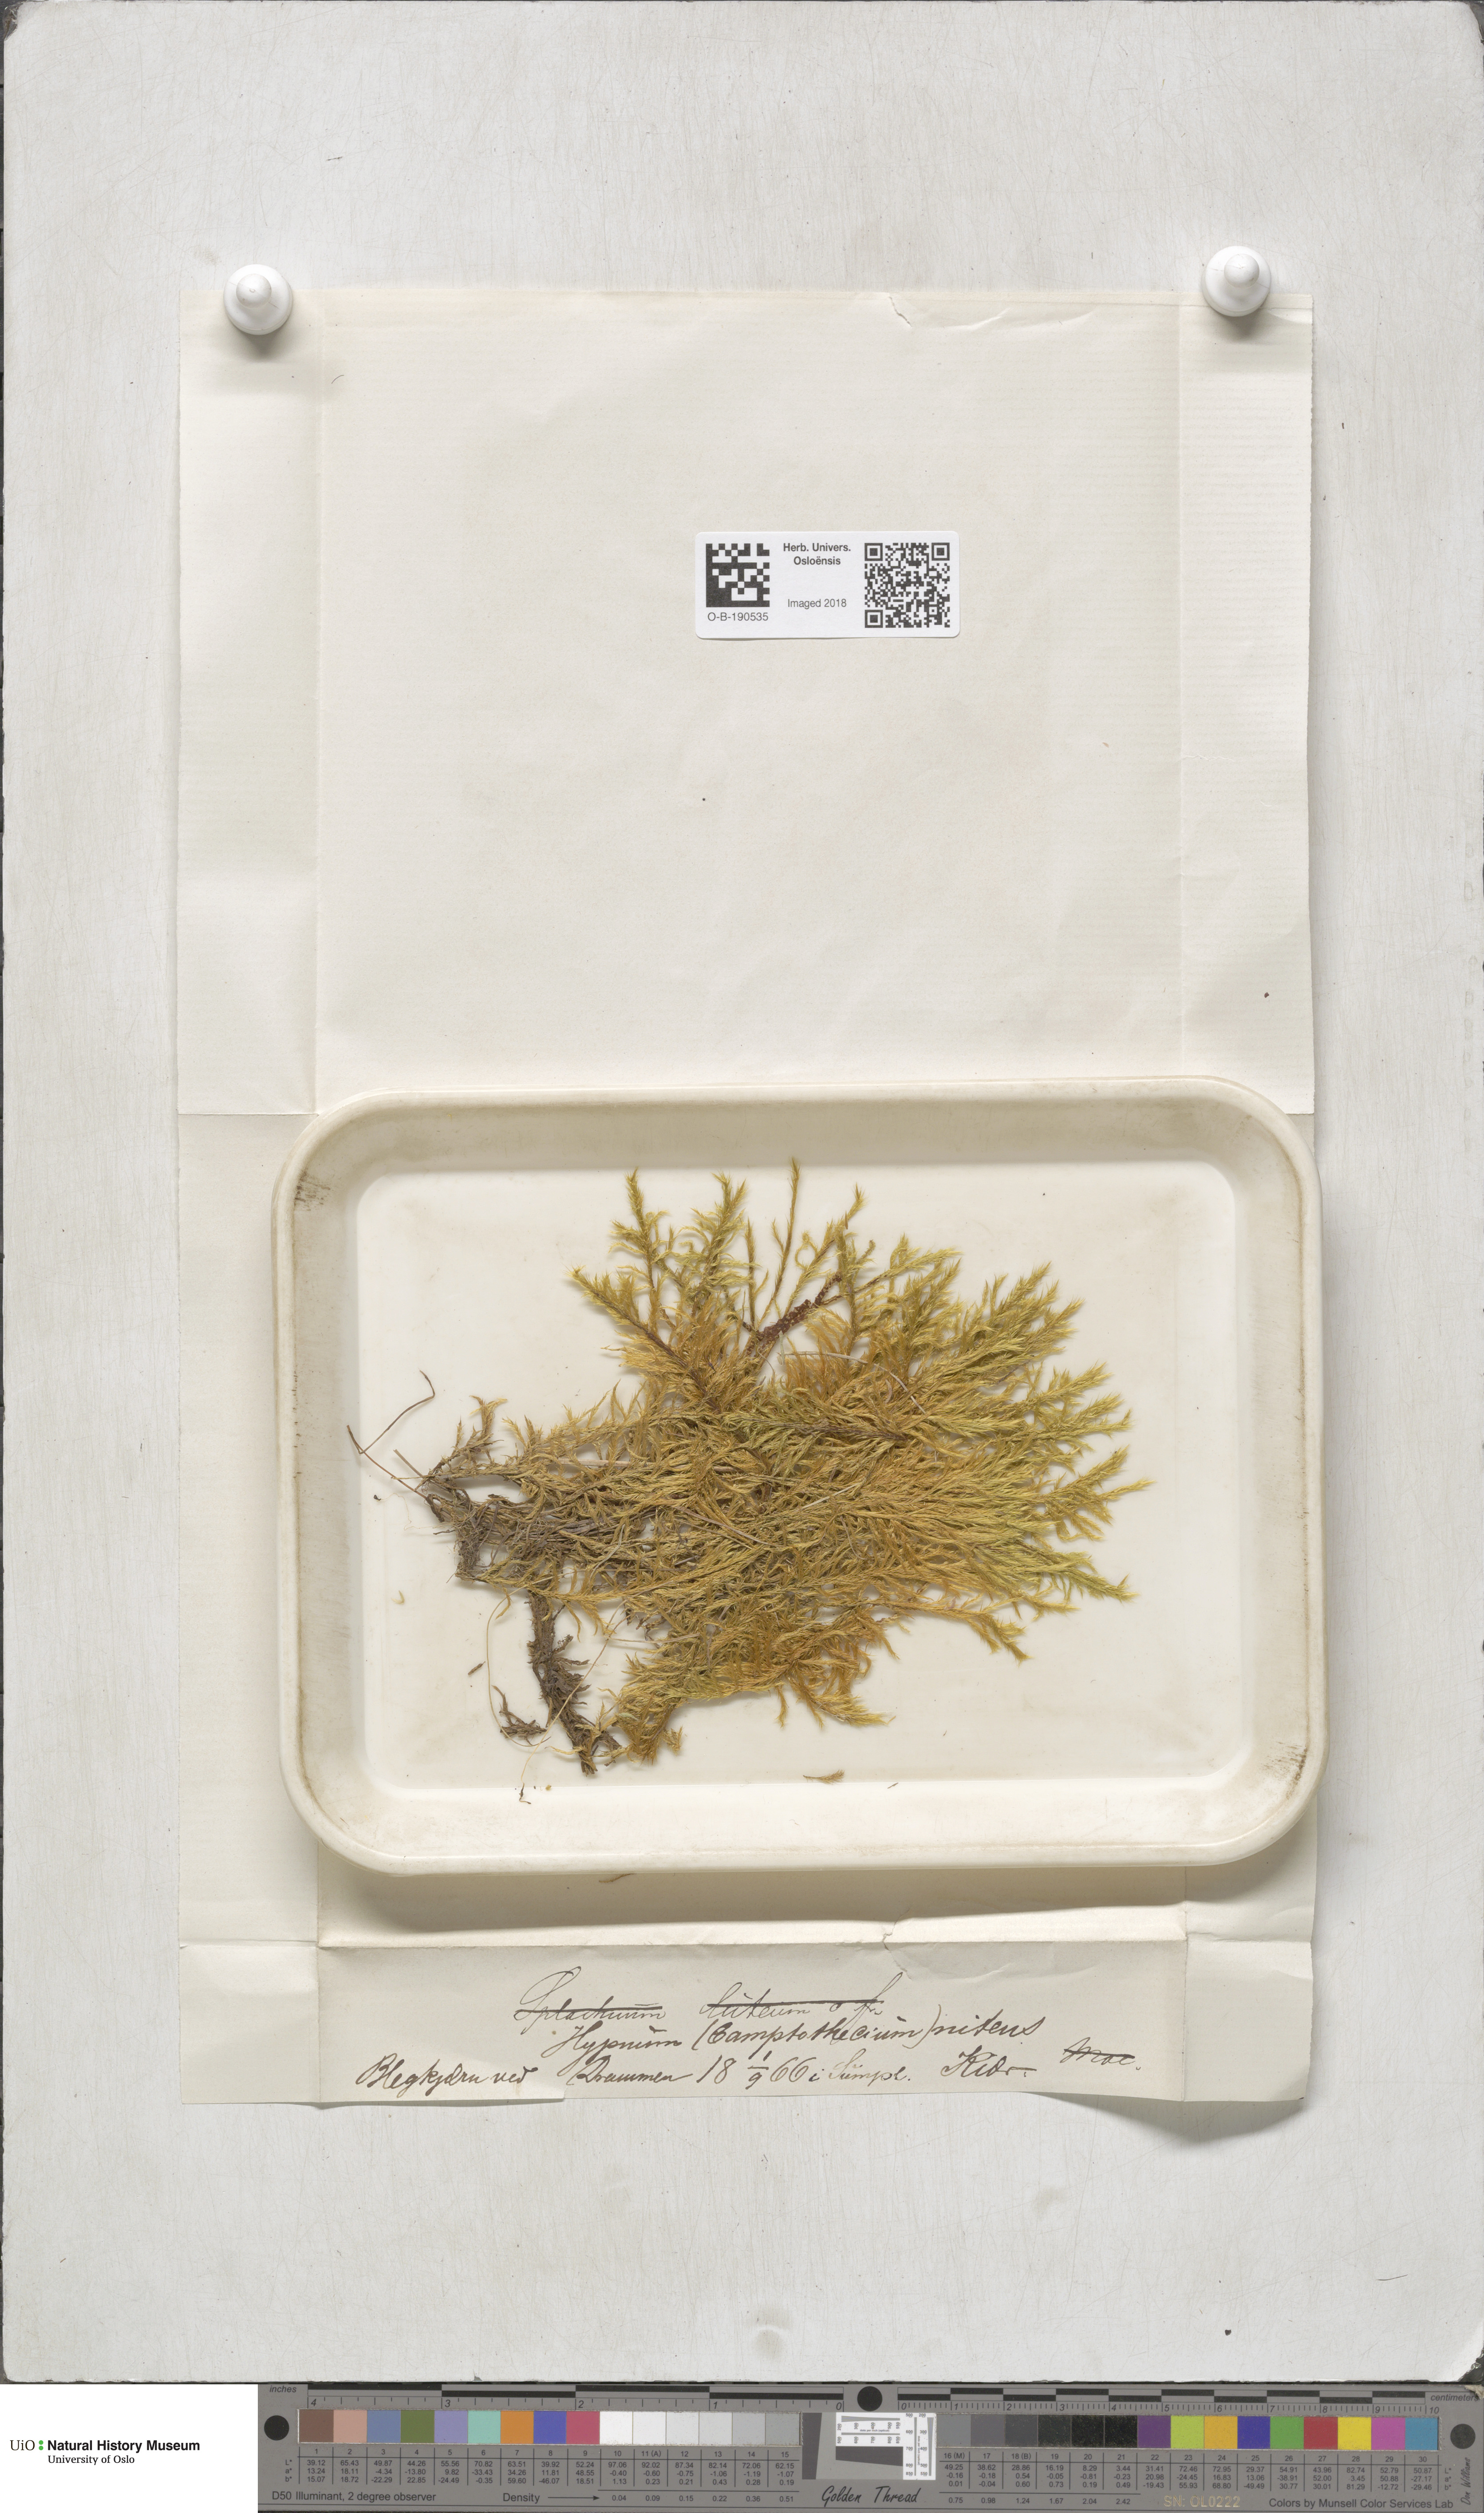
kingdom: Plantae
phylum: Bryophyta
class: Bryopsida
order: Hypnales
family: Amblystegiaceae
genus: Tomentypnum
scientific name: Tomentypnum nitens
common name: Golden fuzzy fen moss
